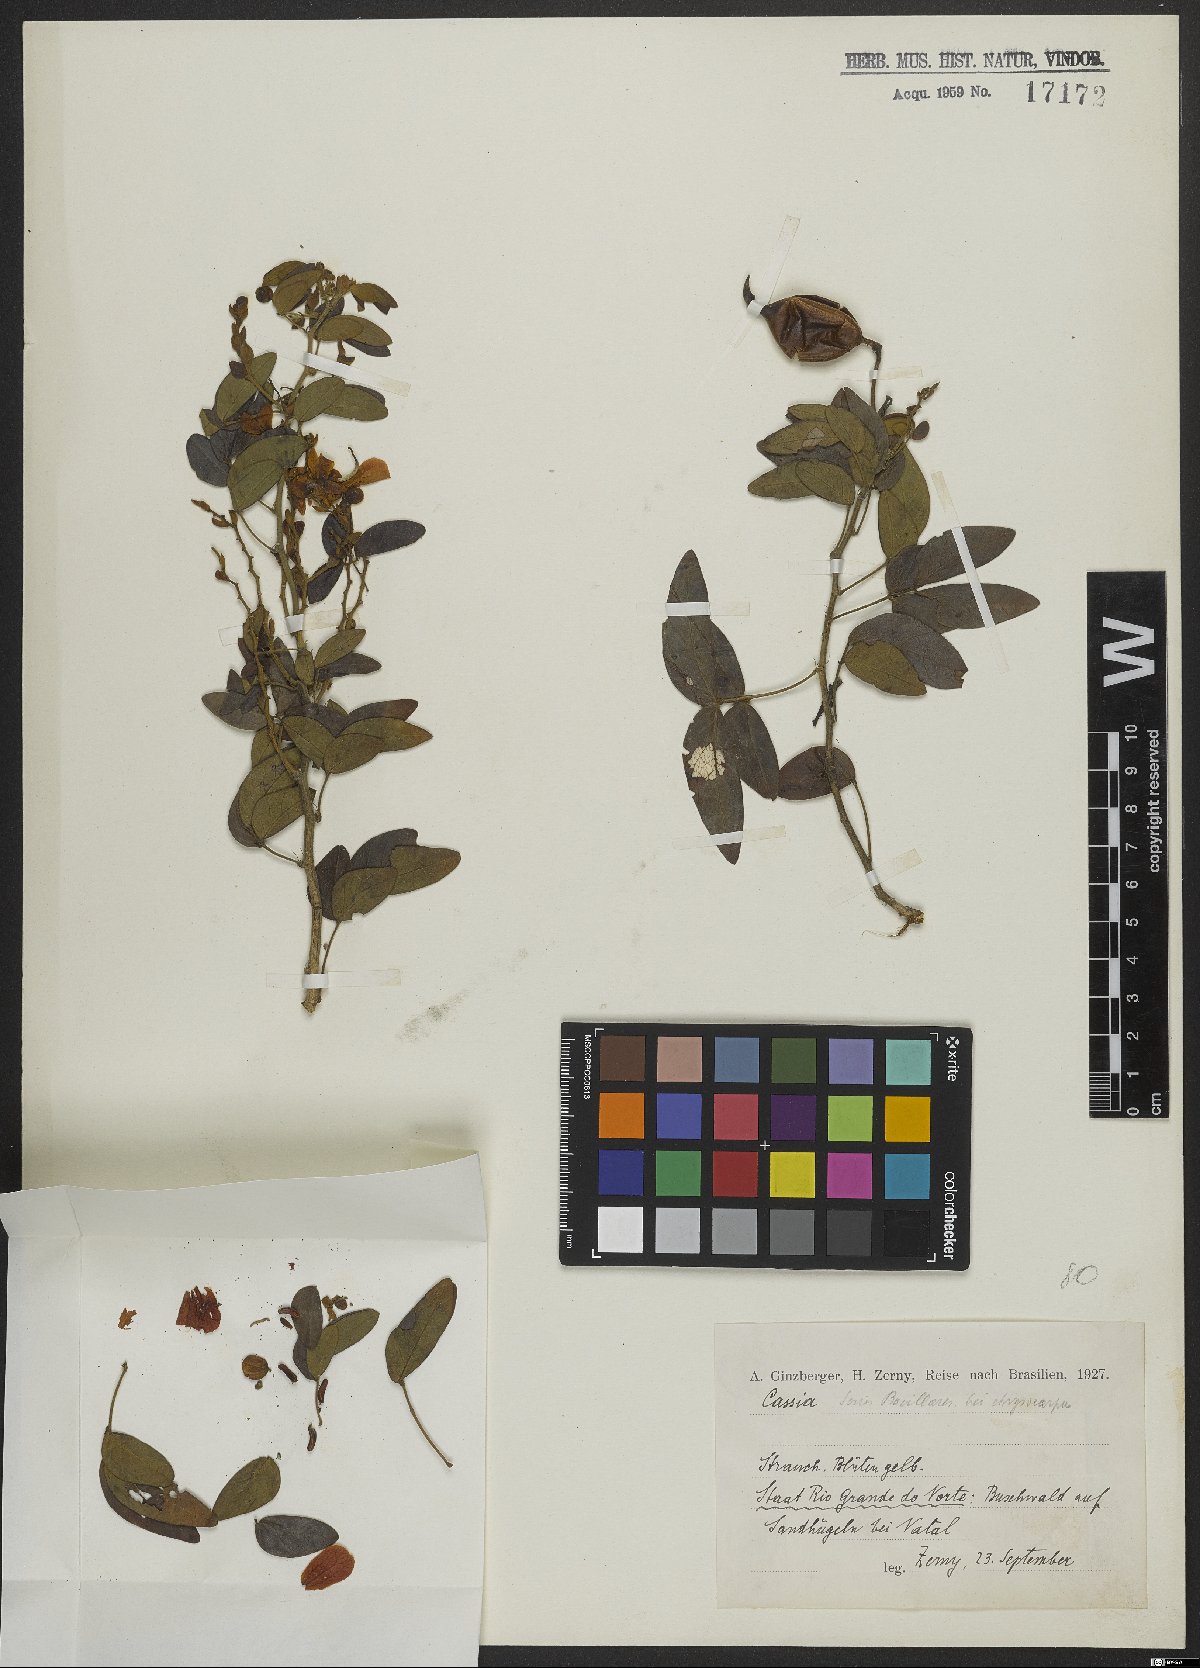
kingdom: Plantae
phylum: Tracheophyta
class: Magnoliopsida
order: Fabales
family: Fabaceae
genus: Cassia
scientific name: Cassia
